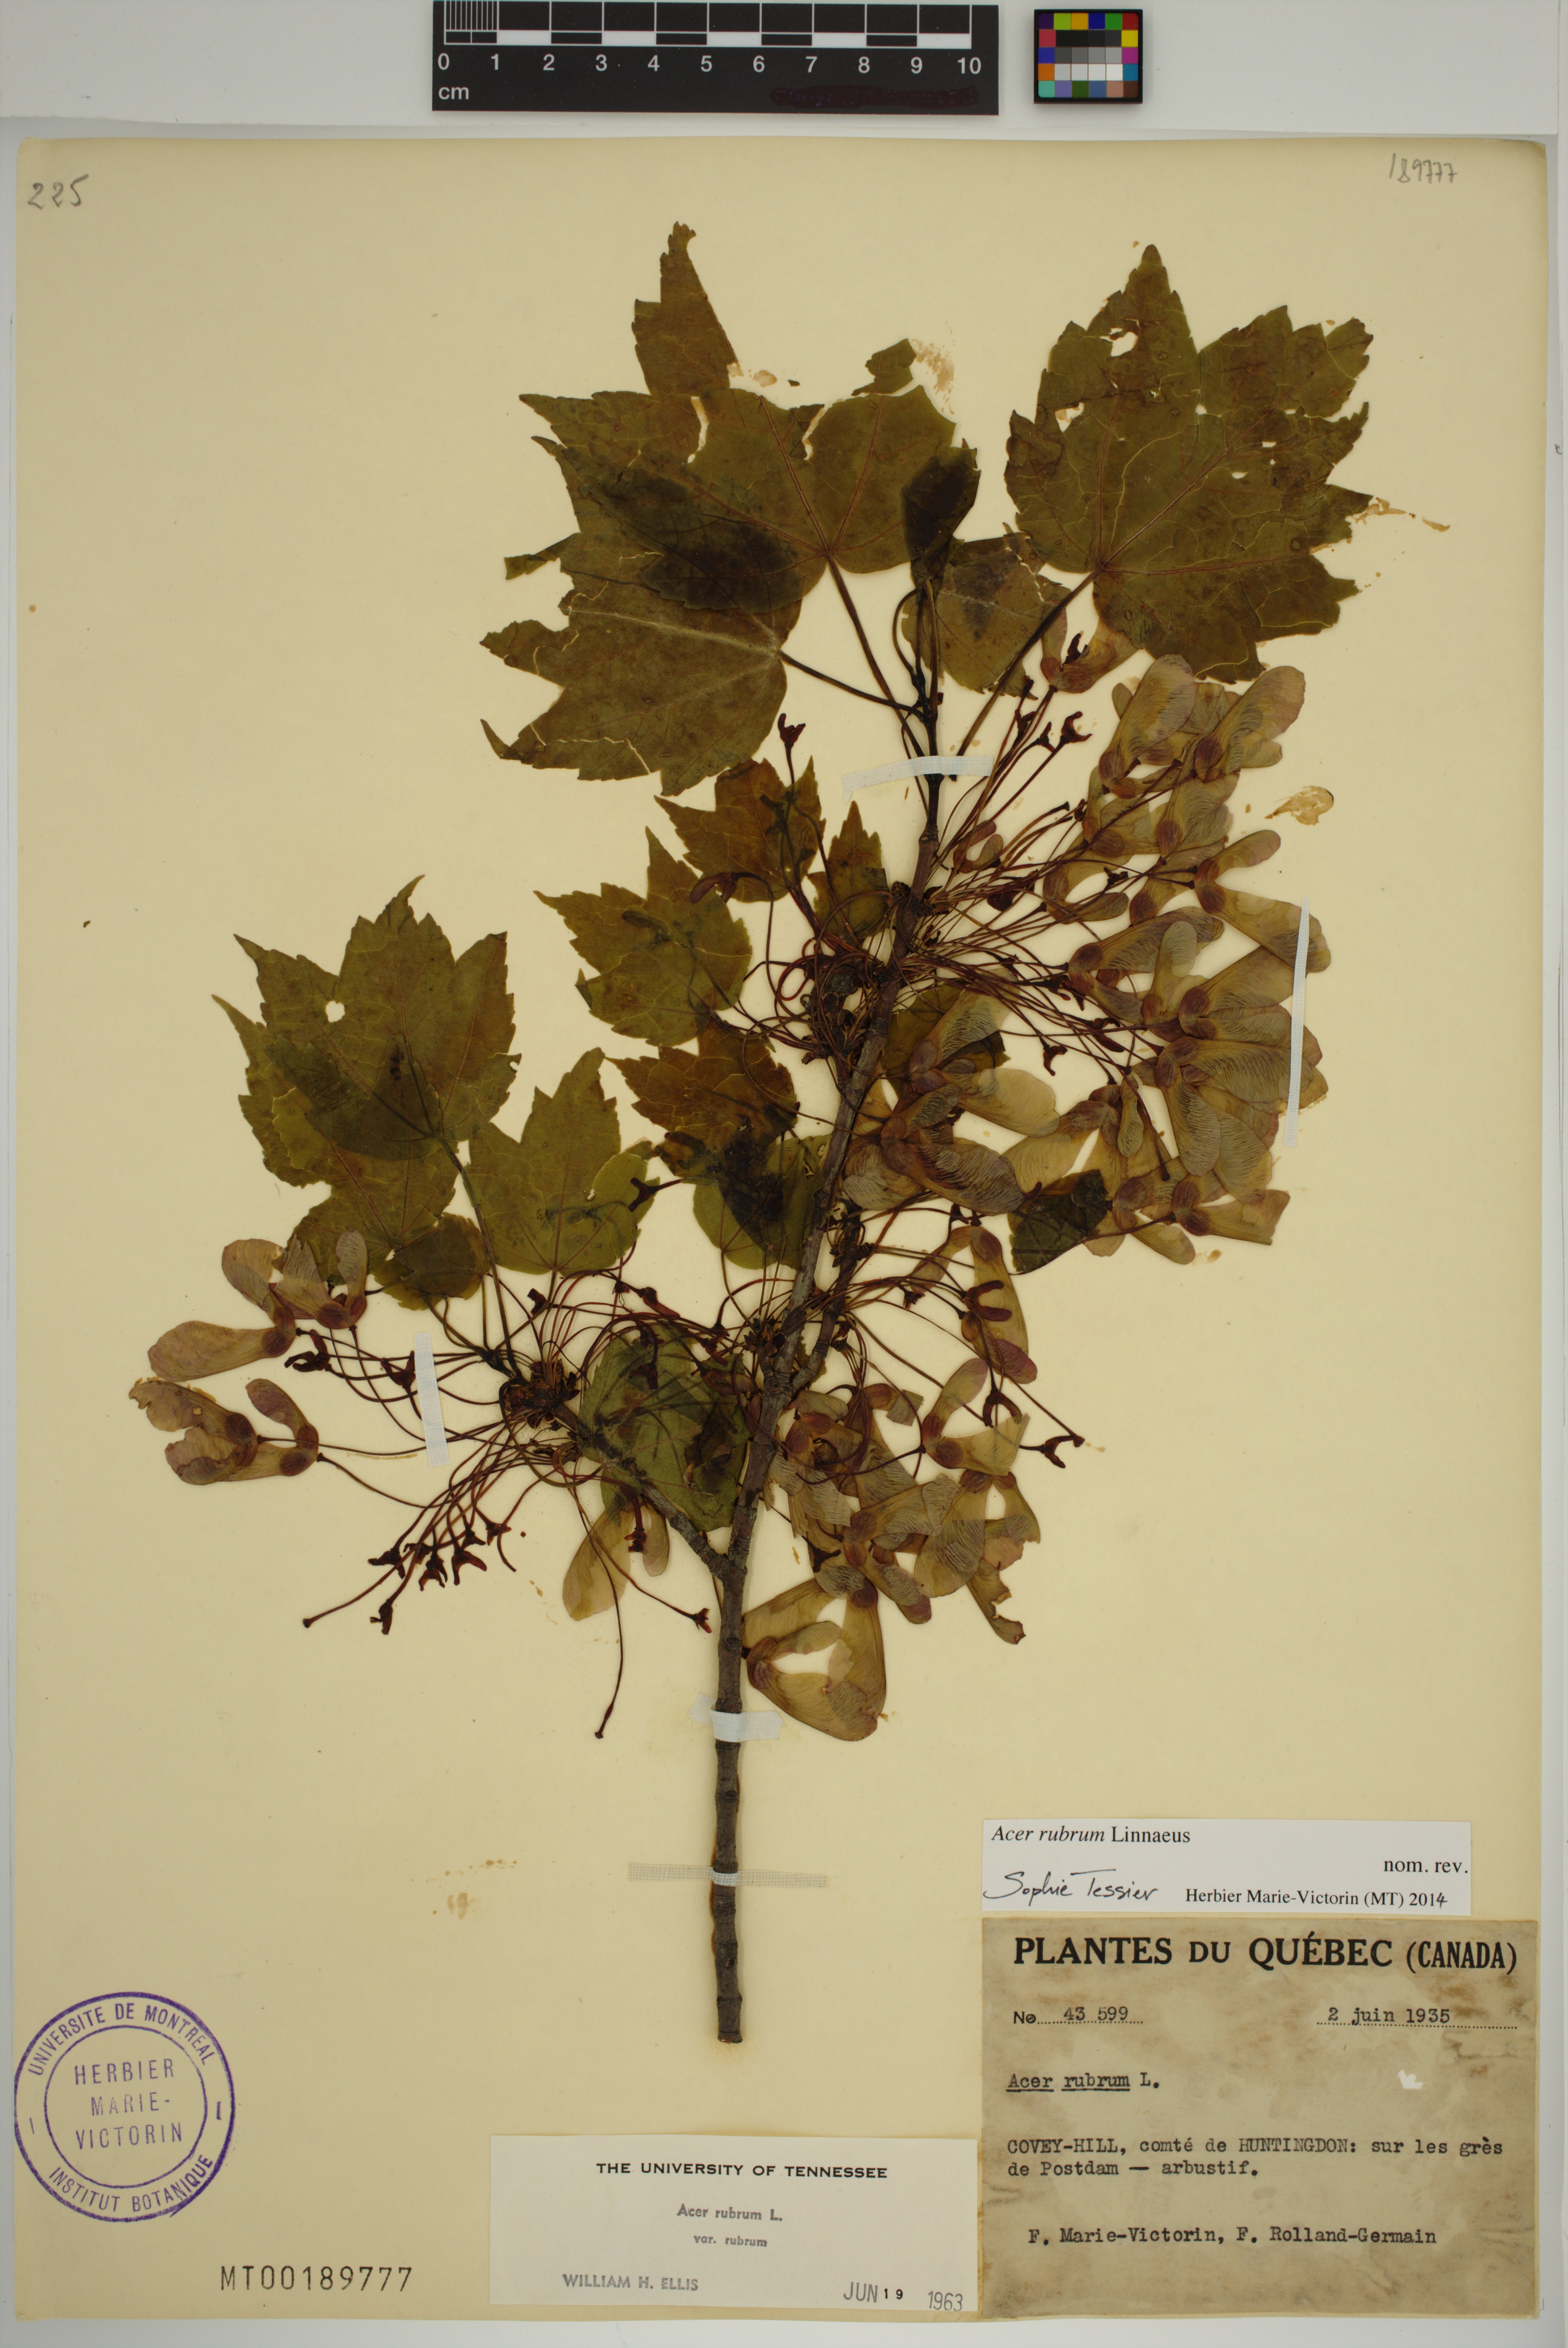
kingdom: Plantae
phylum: Tracheophyta
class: Magnoliopsida
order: Sapindales
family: Sapindaceae
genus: Acer
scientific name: Acer rubrum
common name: Red maple
